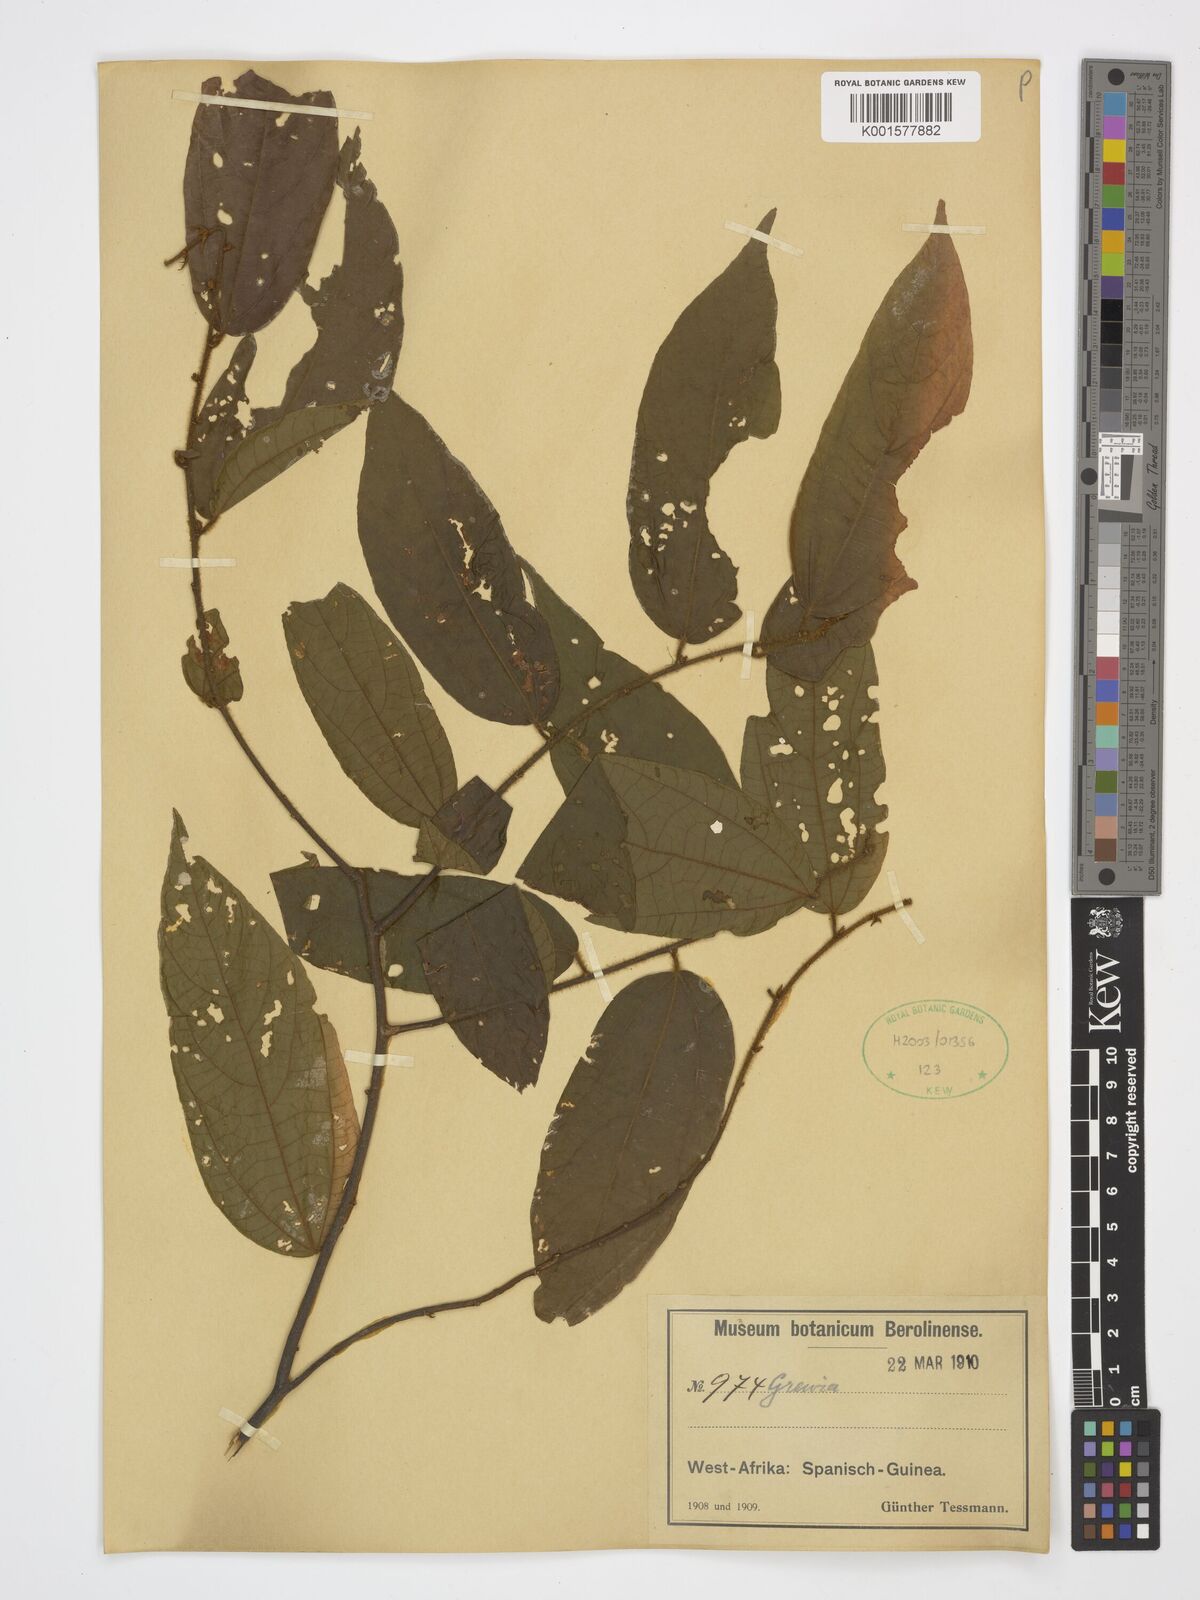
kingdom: Plantae
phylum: Tracheophyta
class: Magnoliopsida
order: Malvales
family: Malvaceae
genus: Grewia
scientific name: Grewia
